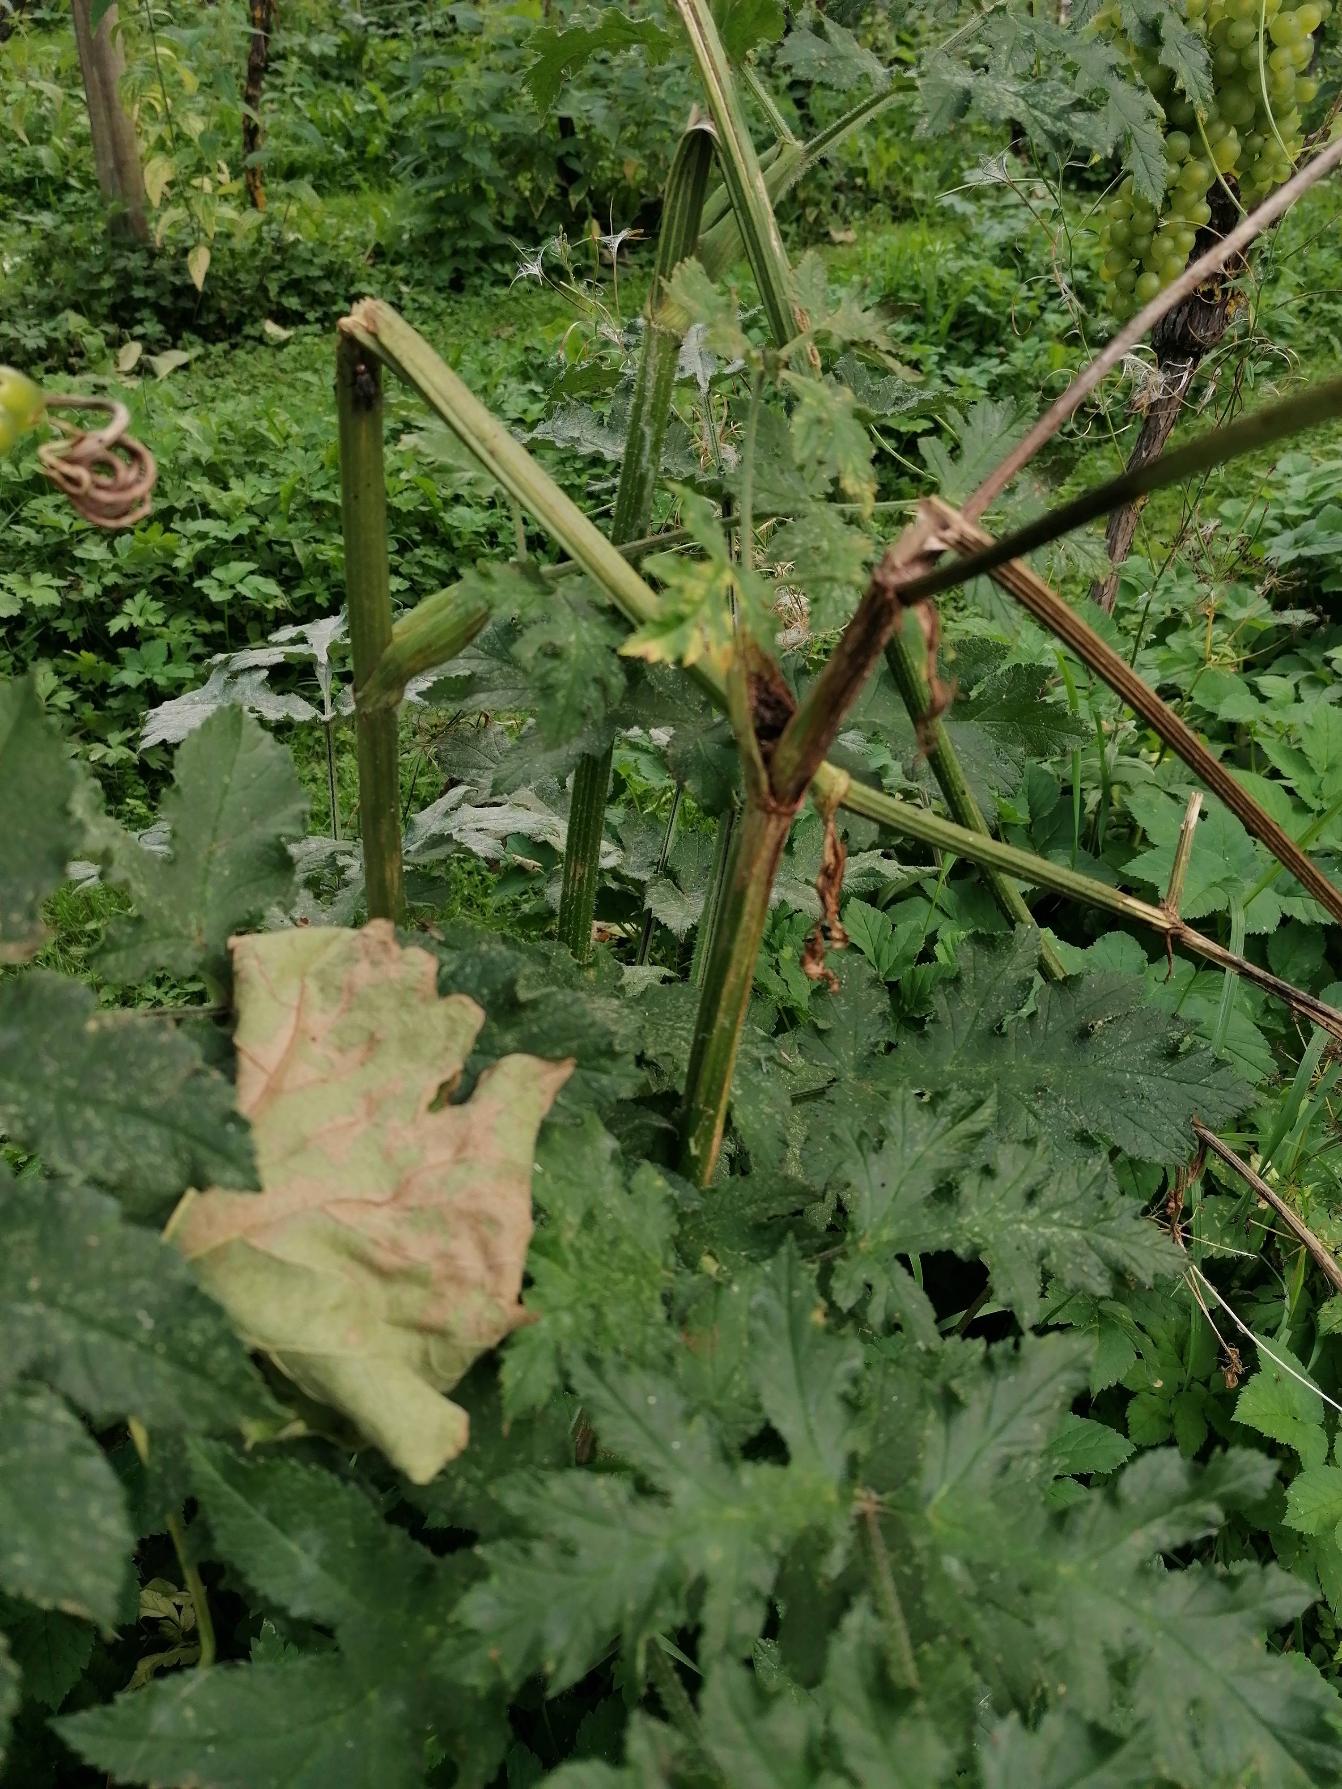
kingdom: Plantae
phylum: Tracheophyta
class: Magnoliopsida
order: Apiales
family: Apiaceae
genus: Heracleum
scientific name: Heracleum
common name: Bjørnekloslægten
